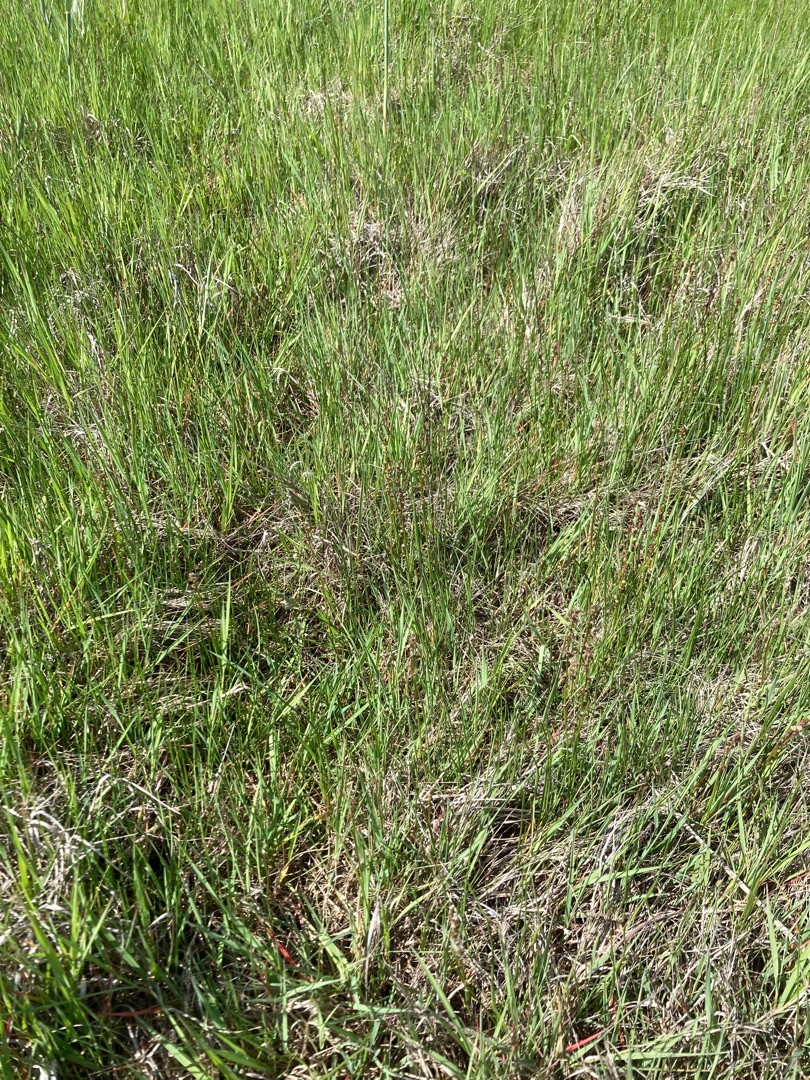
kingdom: Plantae
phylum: Tracheophyta
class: Liliopsida
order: Alismatales
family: Juncaginaceae
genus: Triglochin
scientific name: Triglochin palustris
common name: Kær-trehage
